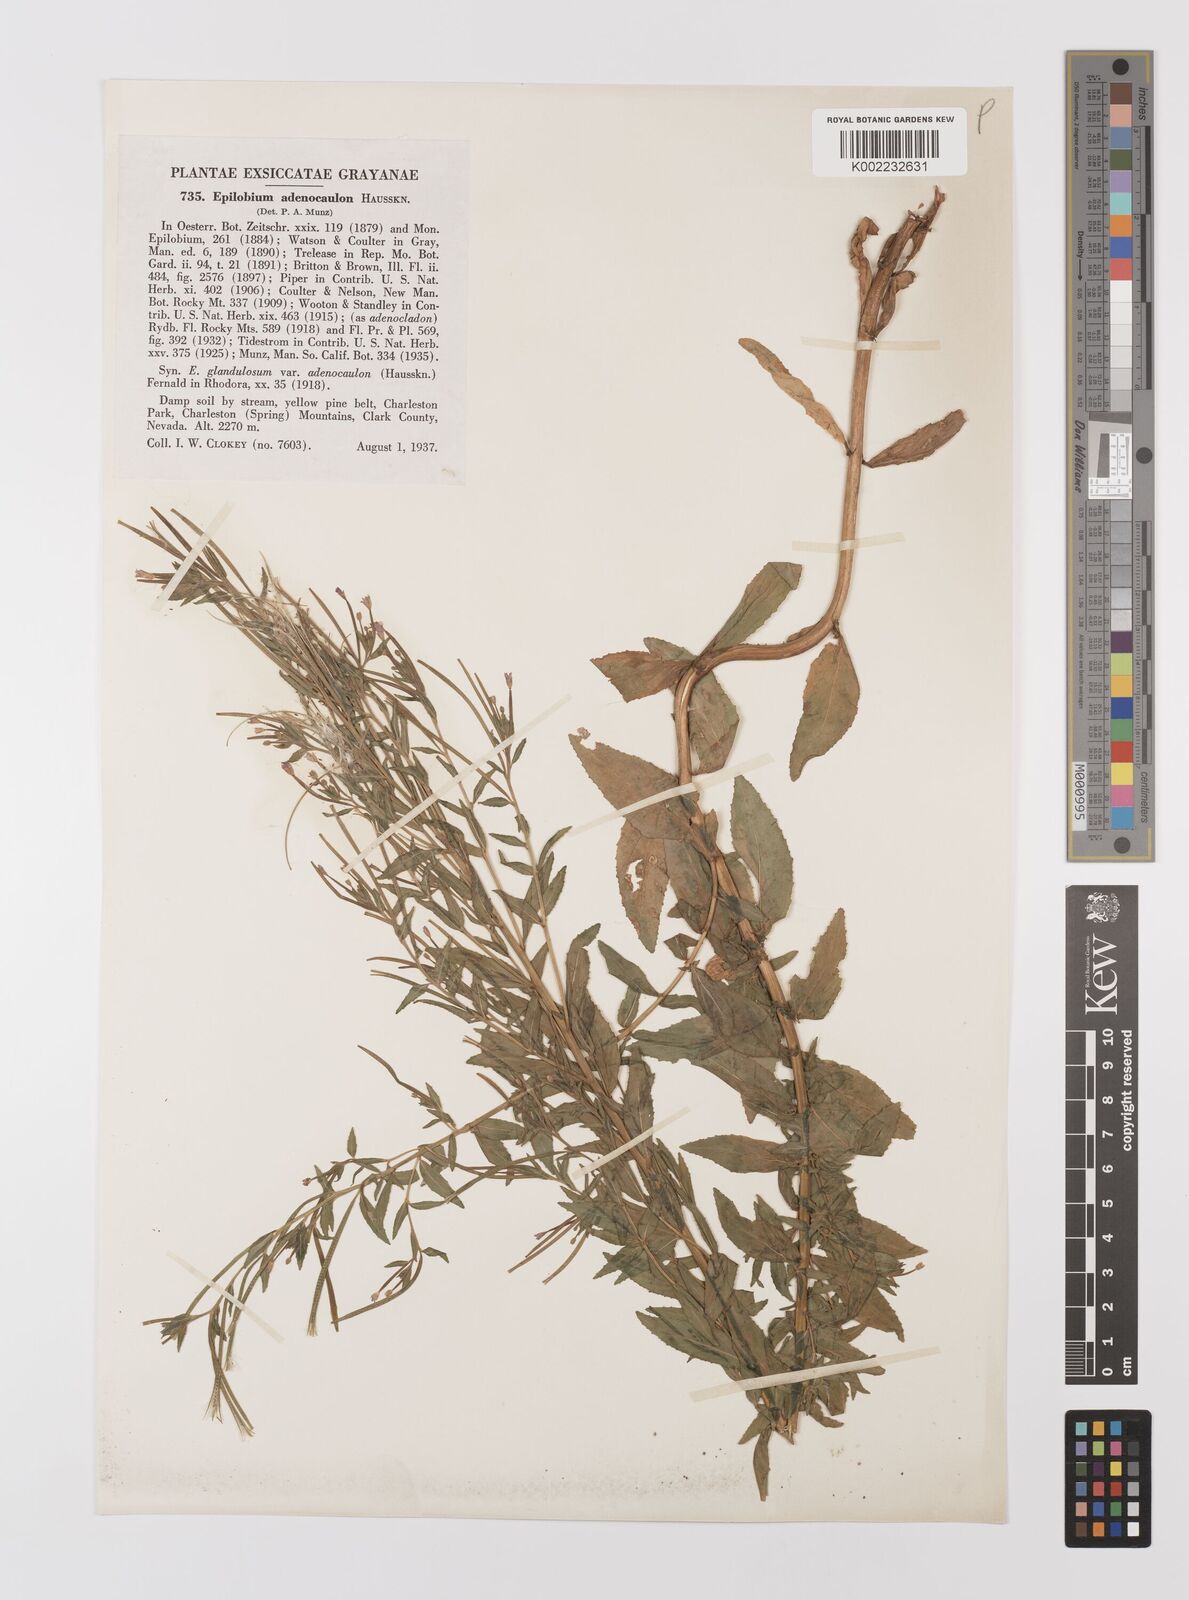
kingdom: Plantae
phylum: Tracheophyta
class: Magnoliopsida
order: Myrtales
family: Onagraceae
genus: Epilobium
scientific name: Epilobium ciliatum
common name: American willowherb
